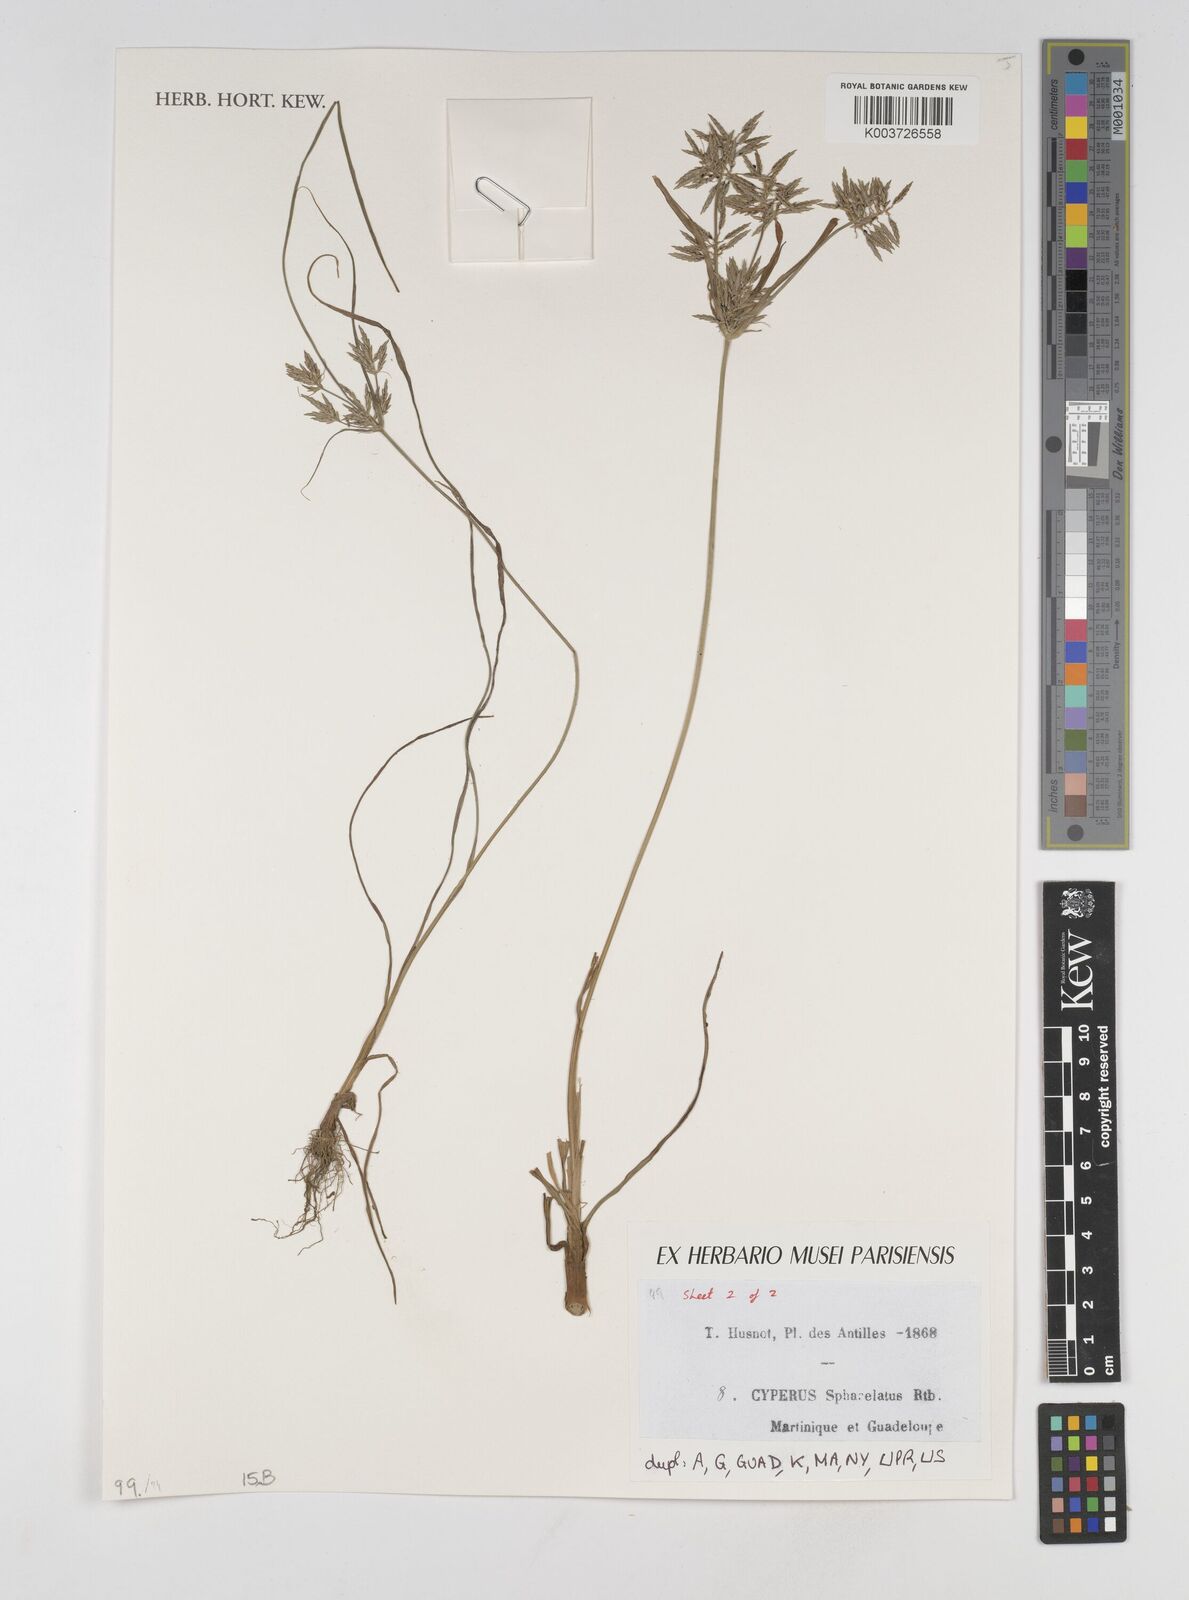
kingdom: Plantae
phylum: Tracheophyta
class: Liliopsida
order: Poales
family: Cyperaceae
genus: Cyperus
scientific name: Cyperus sphacelatus
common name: Roadside flatsedge
